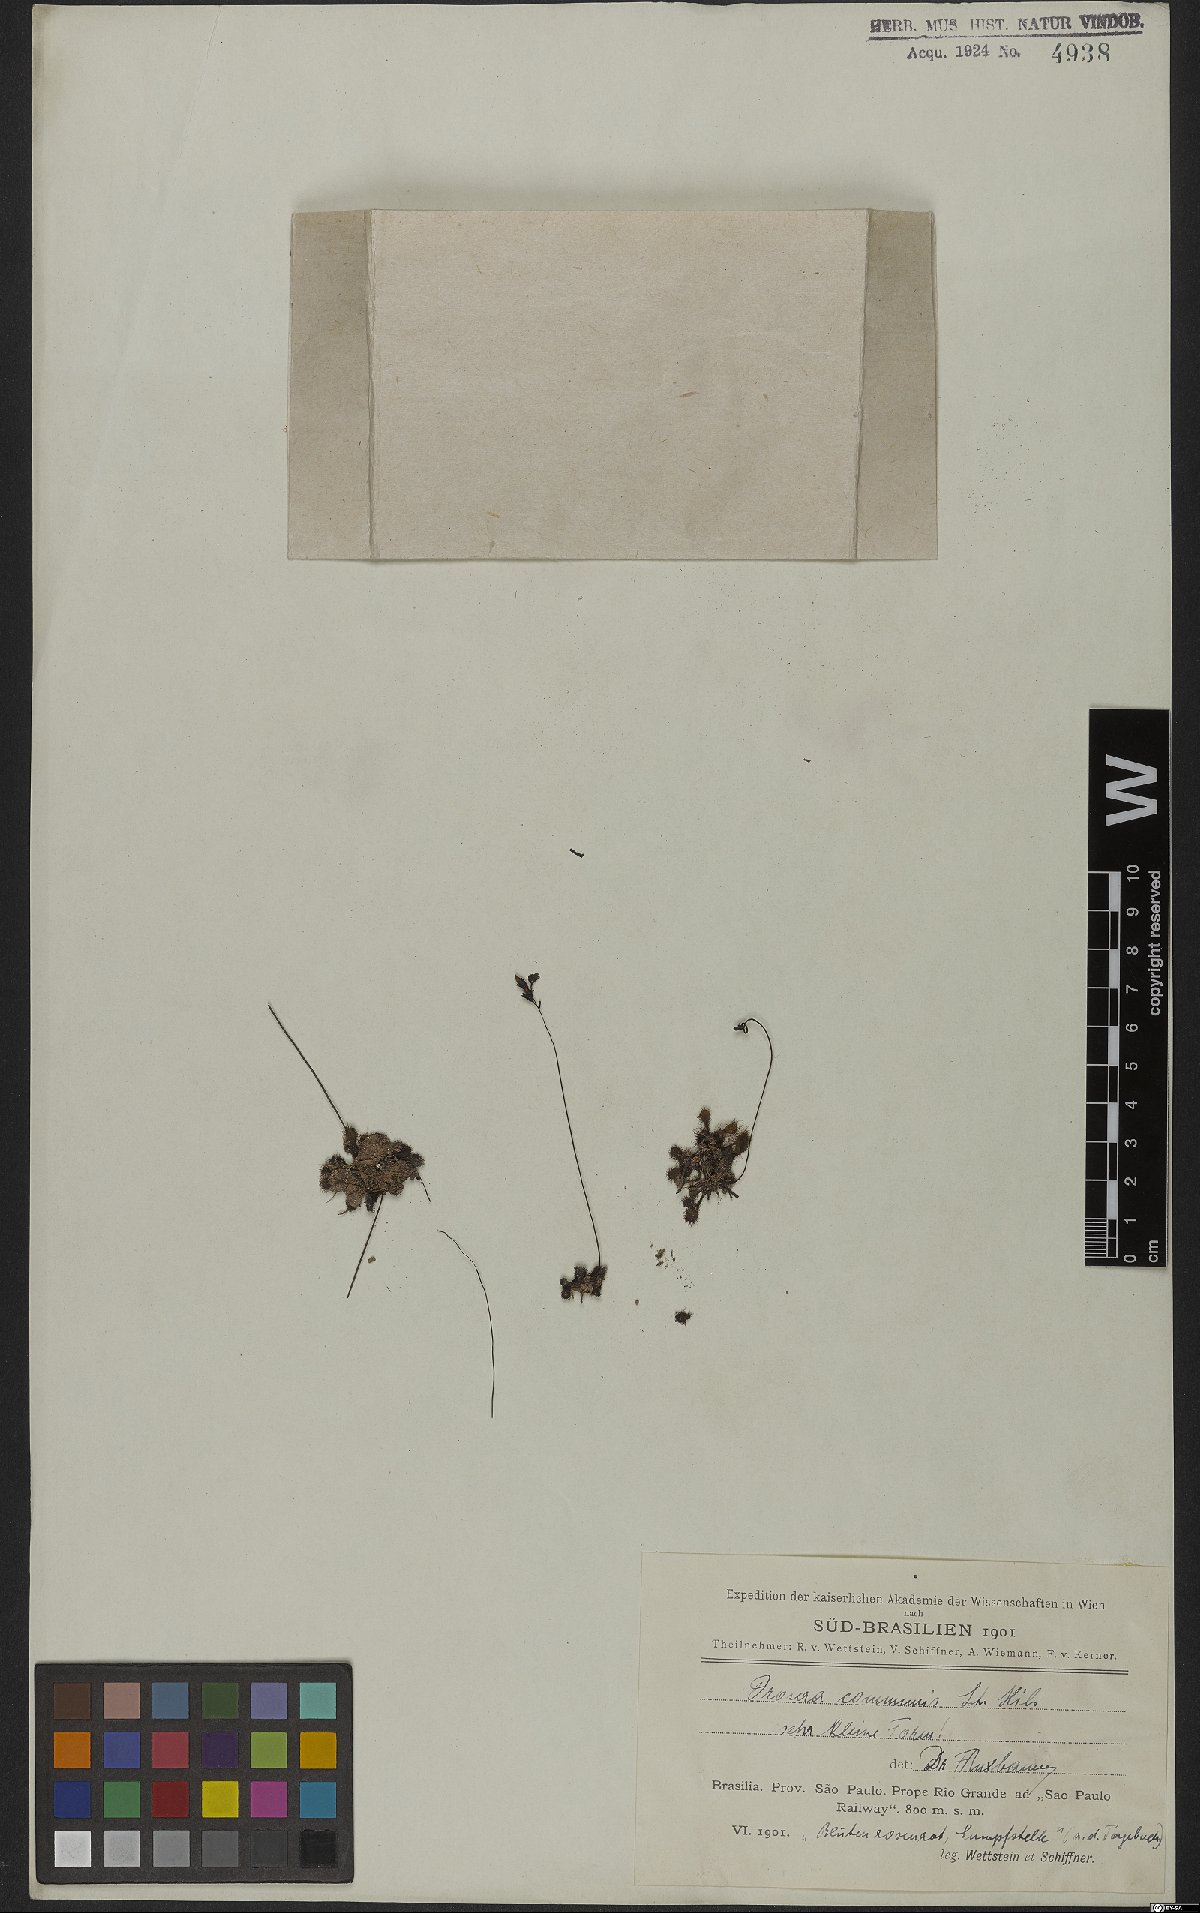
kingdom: Plantae
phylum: Tracheophyta
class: Magnoliopsida
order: Caryophyllales
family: Droseraceae
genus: Drosera
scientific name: Drosera communis
